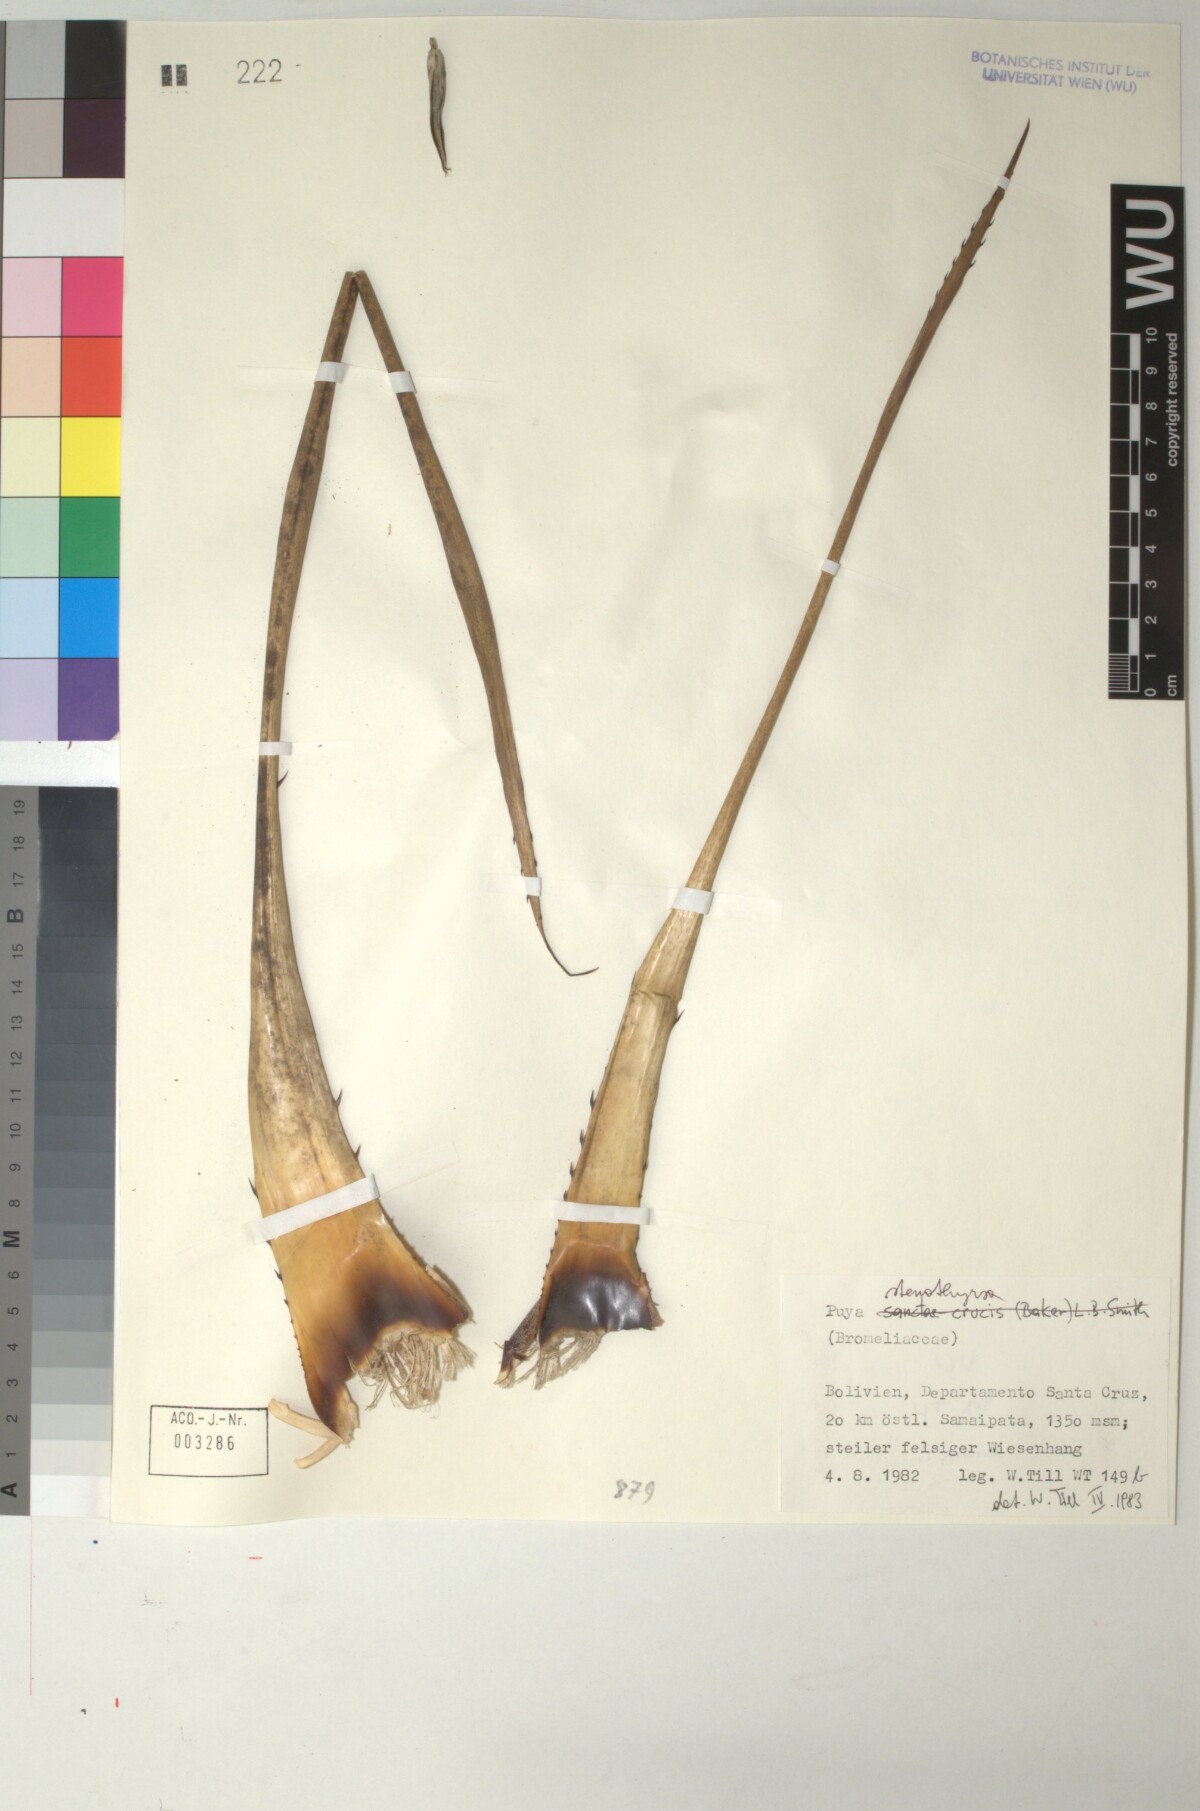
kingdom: Plantae
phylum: Tracheophyta
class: Liliopsida
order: Poales
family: Bromeliaceae
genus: Puya
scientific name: Puya stenothyrsa
